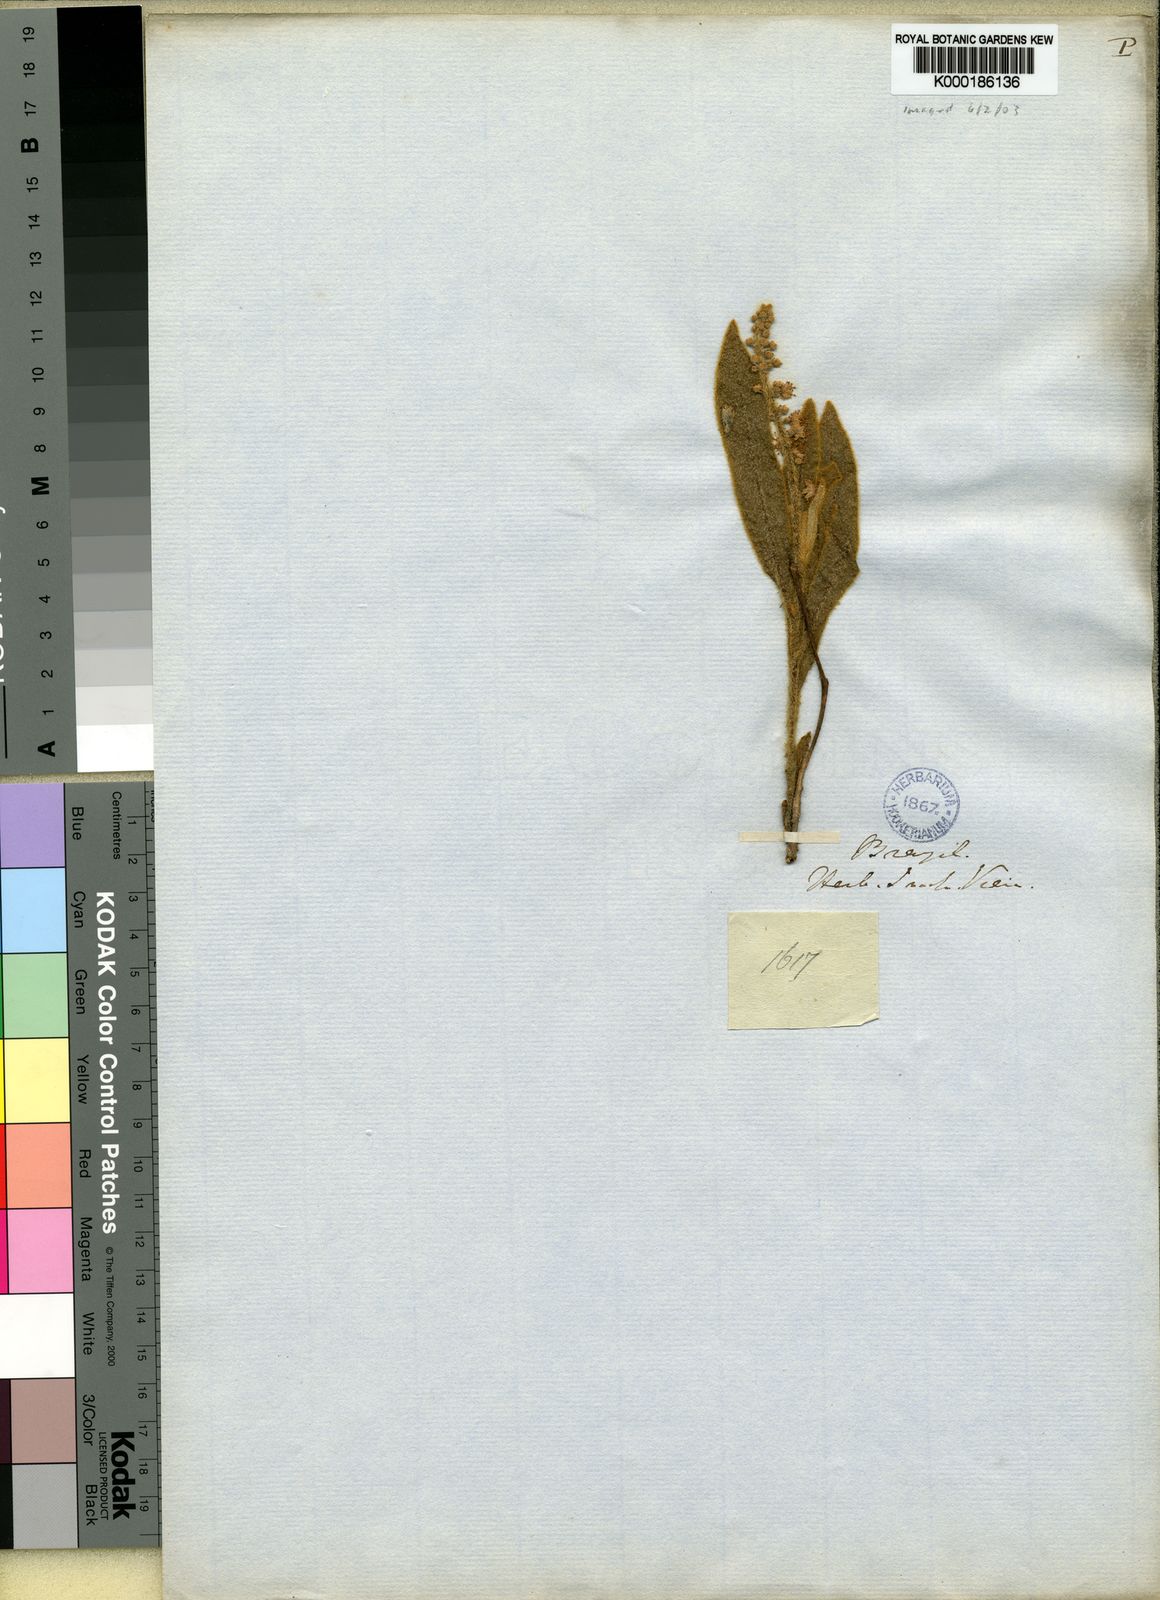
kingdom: Plantae
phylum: Tracheophyta
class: Magnoliopsida
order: Malpighiales
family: Euphorbiaceae
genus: Croton
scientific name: Croton
